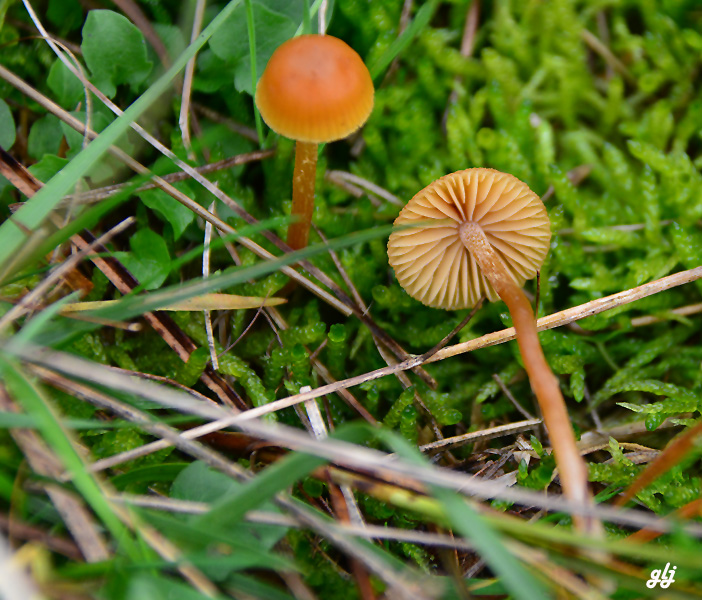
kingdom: Fungi
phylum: Basidiomycota
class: Agaricomycetes
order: Agaricales
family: Hymenogastraceae
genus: Galerina
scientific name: Galerina pumila
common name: honninggul hjelmhat
